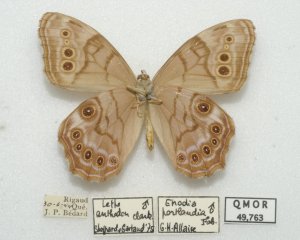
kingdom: Animalia
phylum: Arthropoda
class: Insecta
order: Lepidoptera
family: Nymphalidae
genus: Lethe
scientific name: Lethe anthedon
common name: Northern Pearly-Eye
